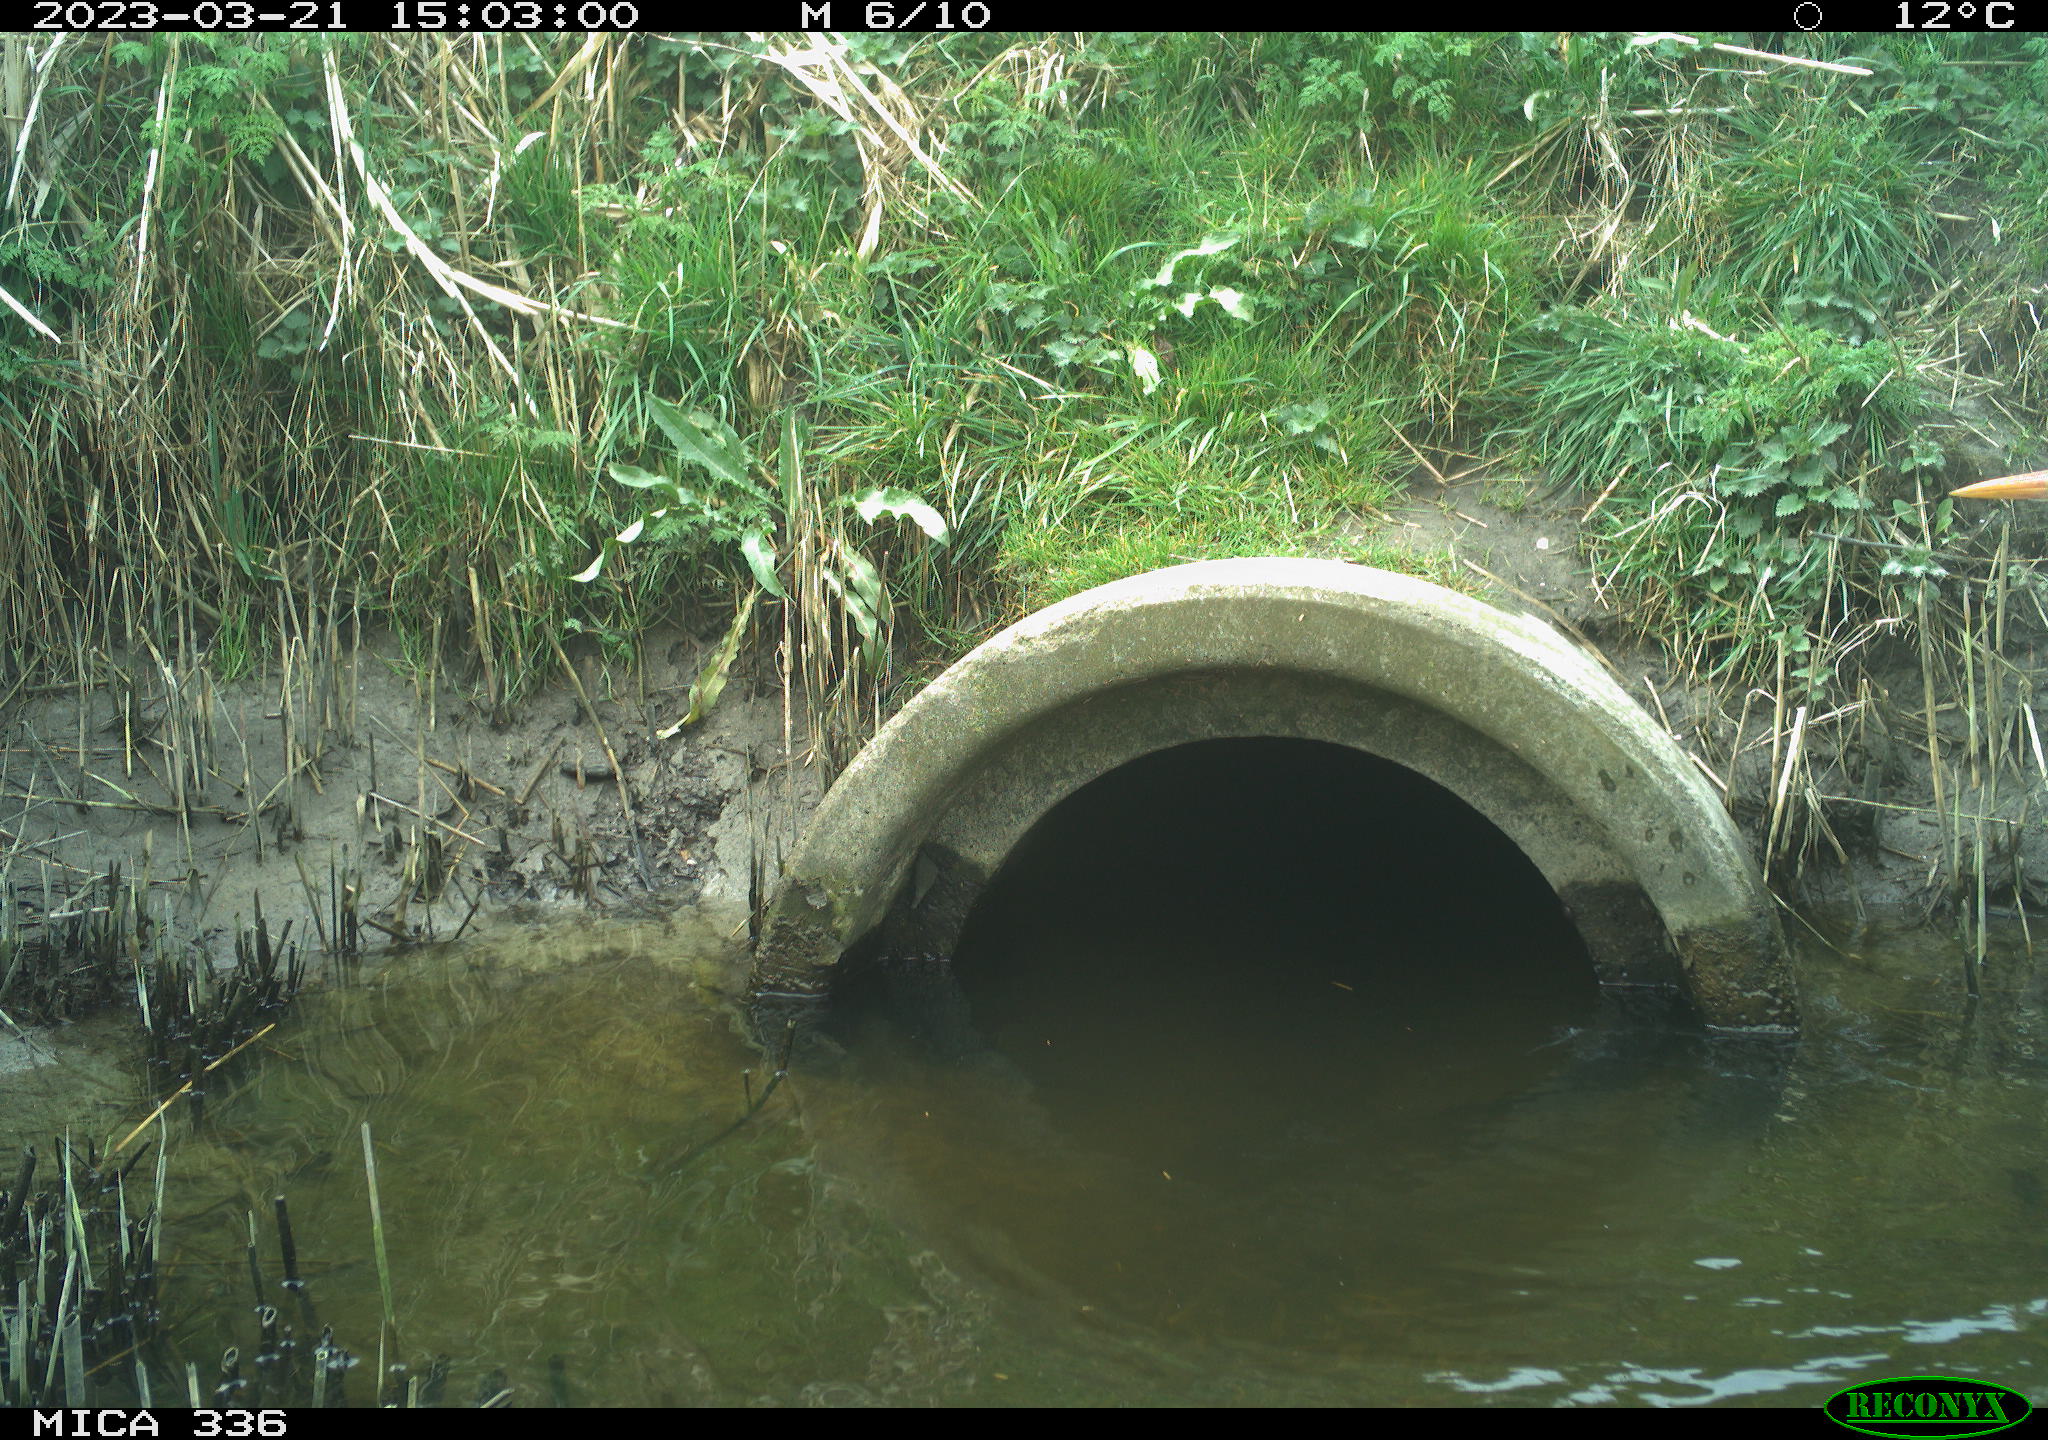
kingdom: Animalia
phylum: Chordata
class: Aves
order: Pelecaniformes
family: Ardeidae
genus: Ardea
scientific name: Ardea
